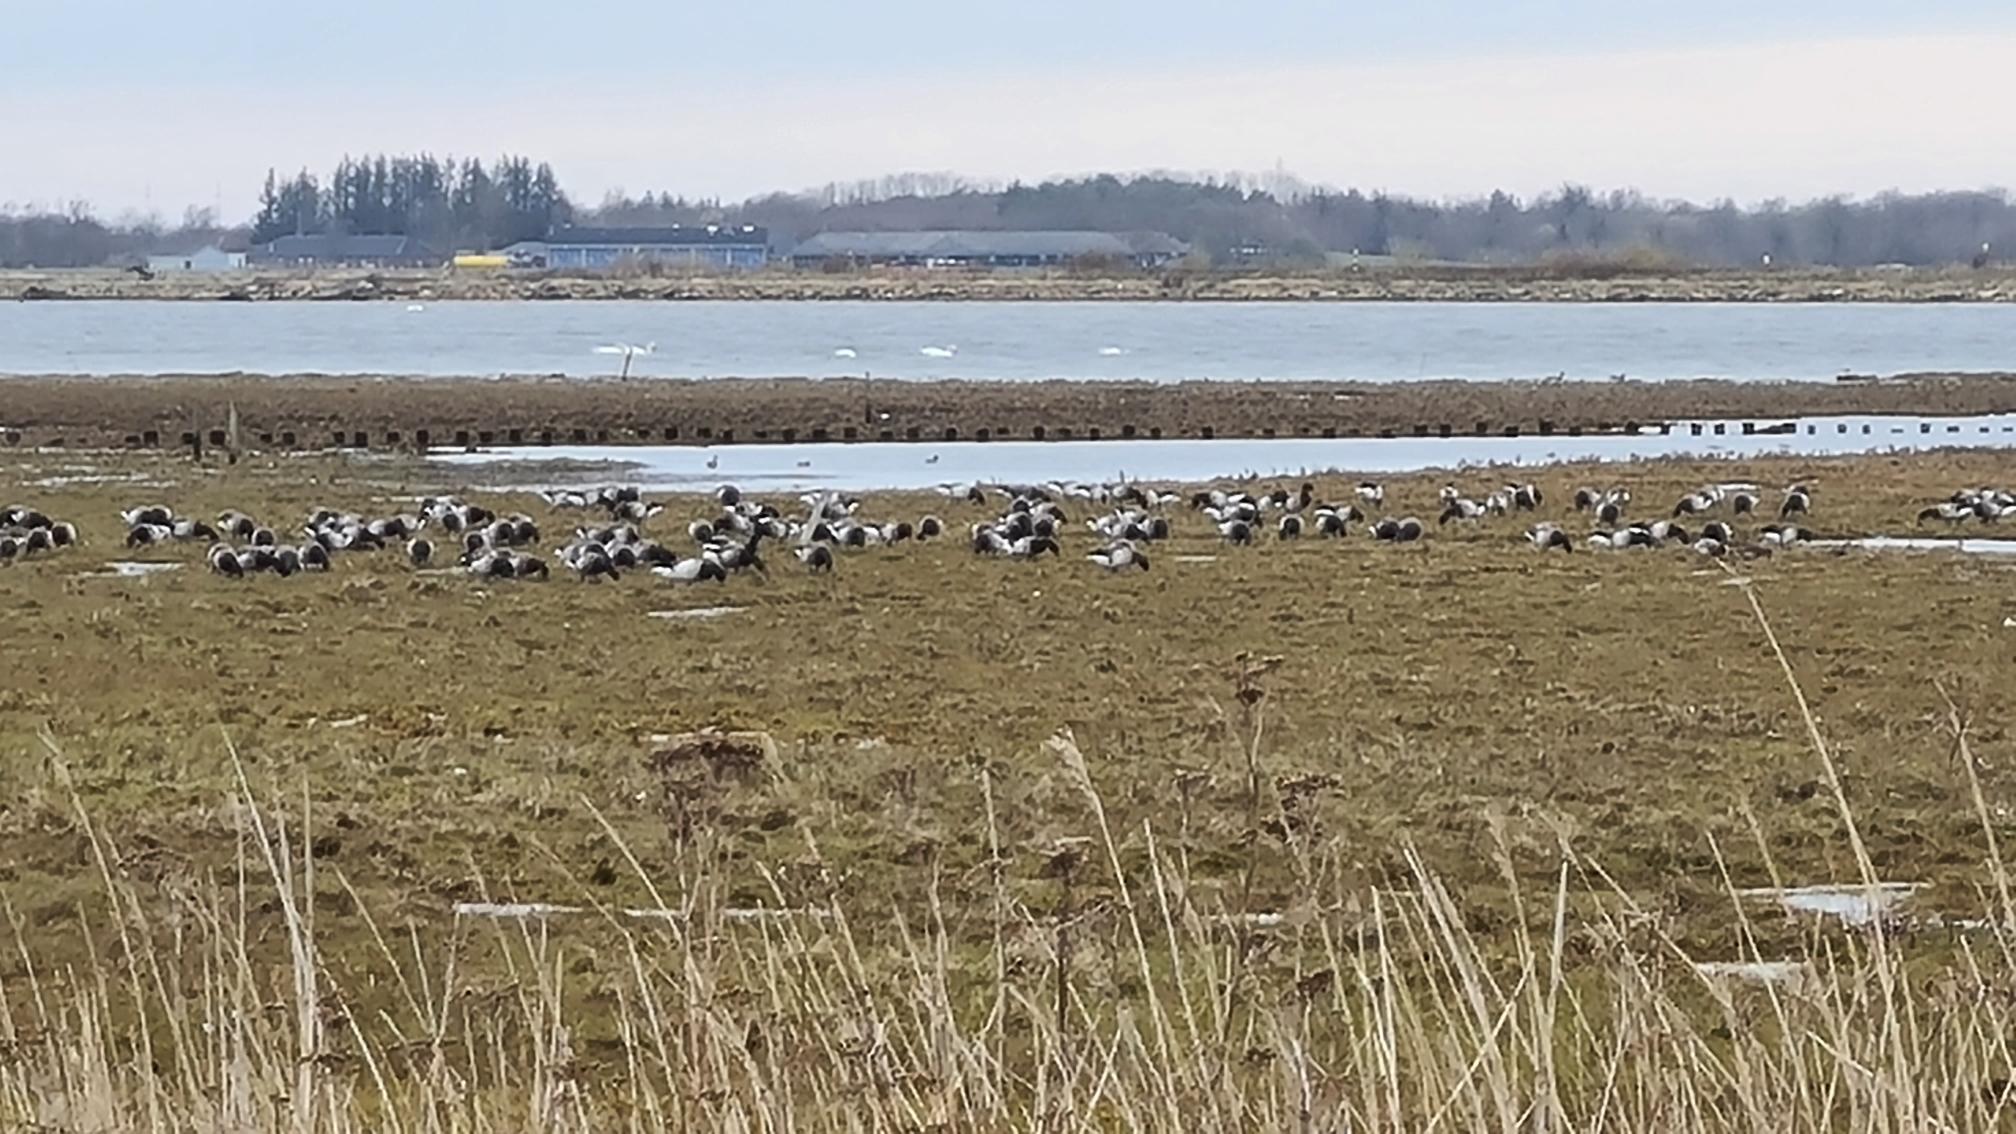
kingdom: Animalia
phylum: Chordata
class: Aves
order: Anseriformes
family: Anatidae
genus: Branta
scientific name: Branta bernicla
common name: Lysbuget knortegås
